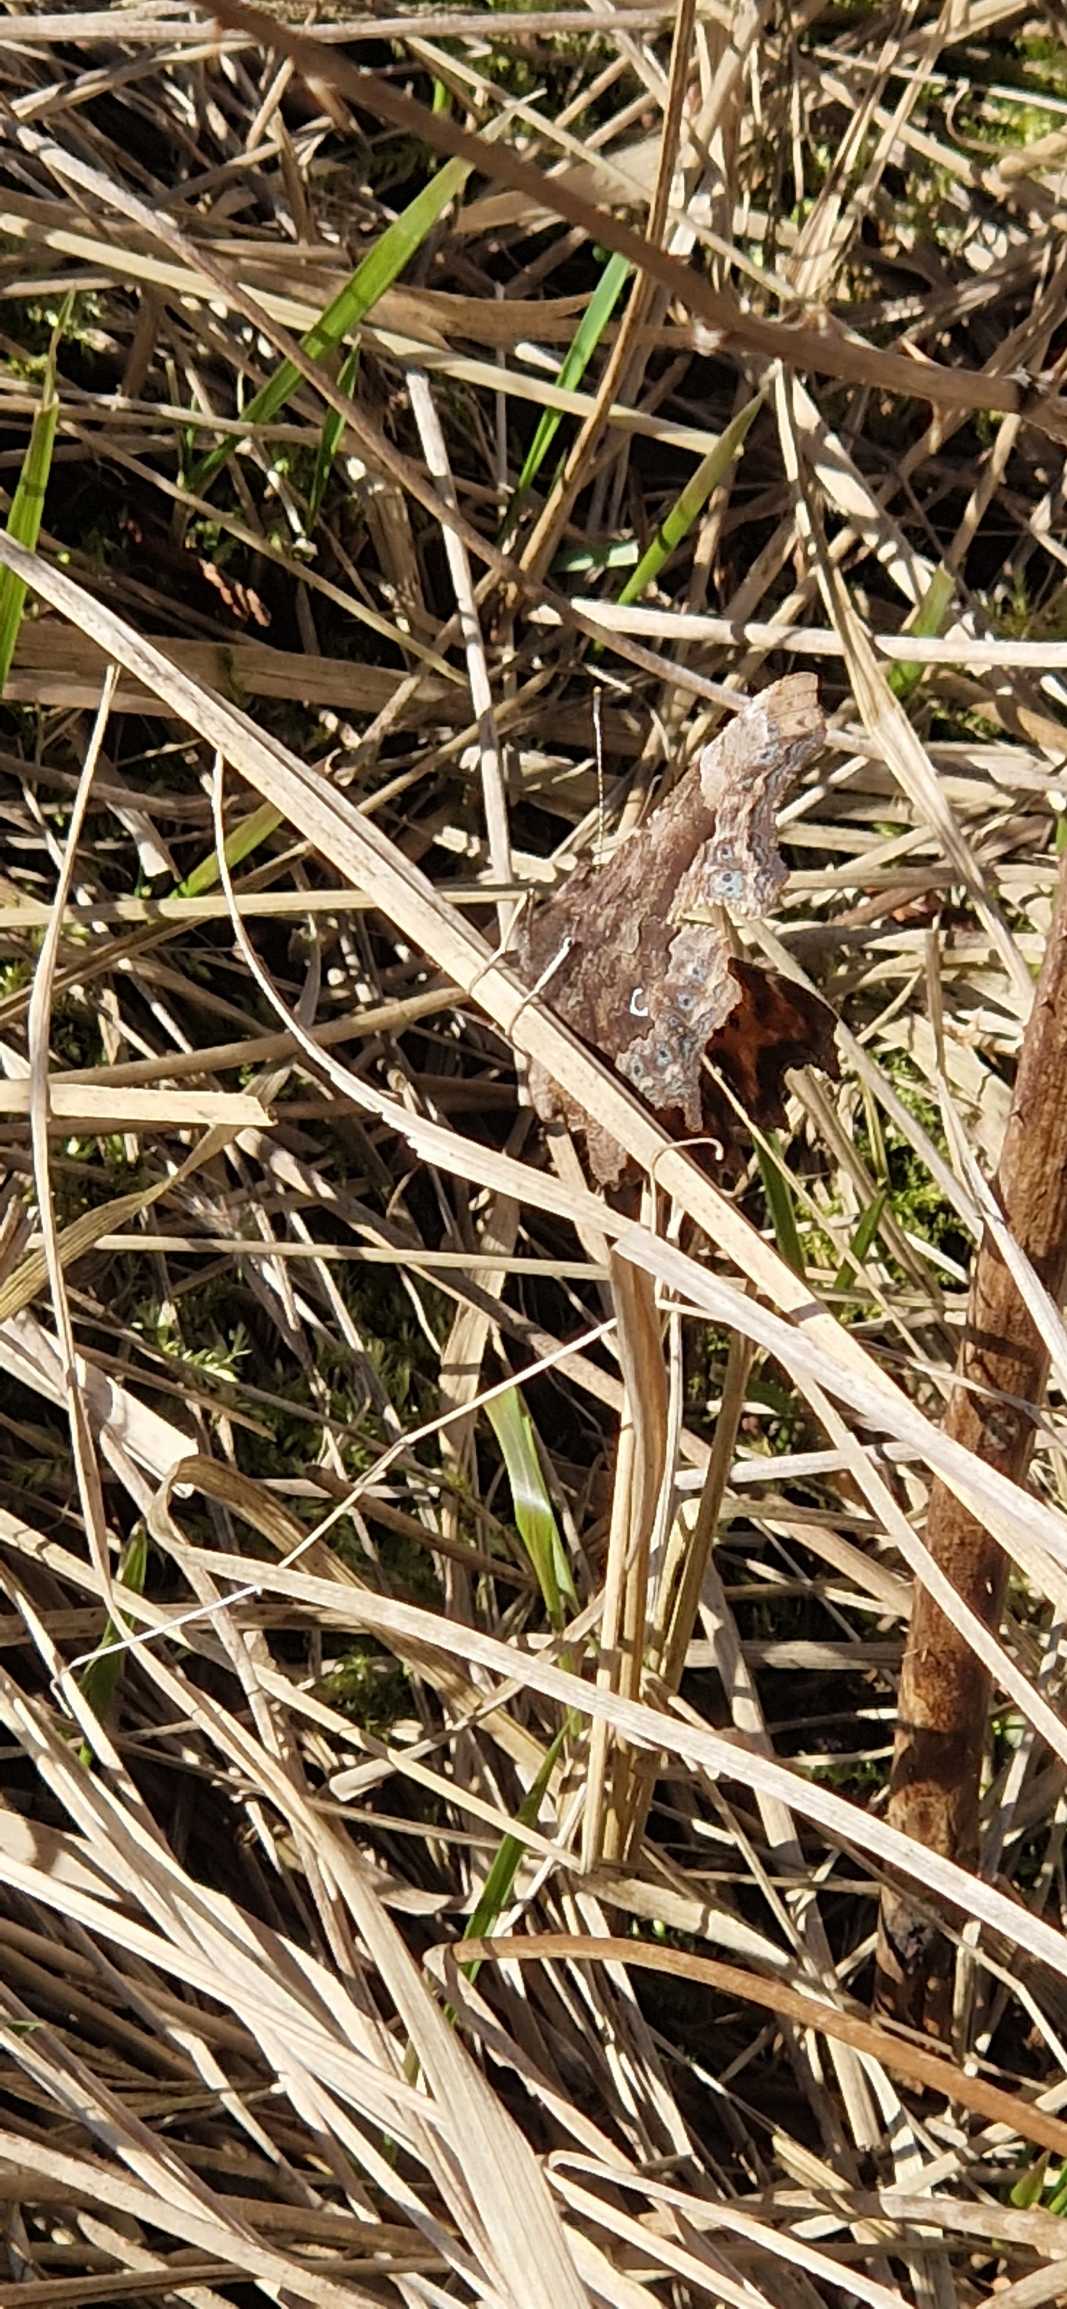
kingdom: Animalia
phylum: Arthropoda
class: Insecta
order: Lepidoptera
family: Nymphalidae
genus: Polygonia
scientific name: Polygonia c-album
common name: Det hvide C
